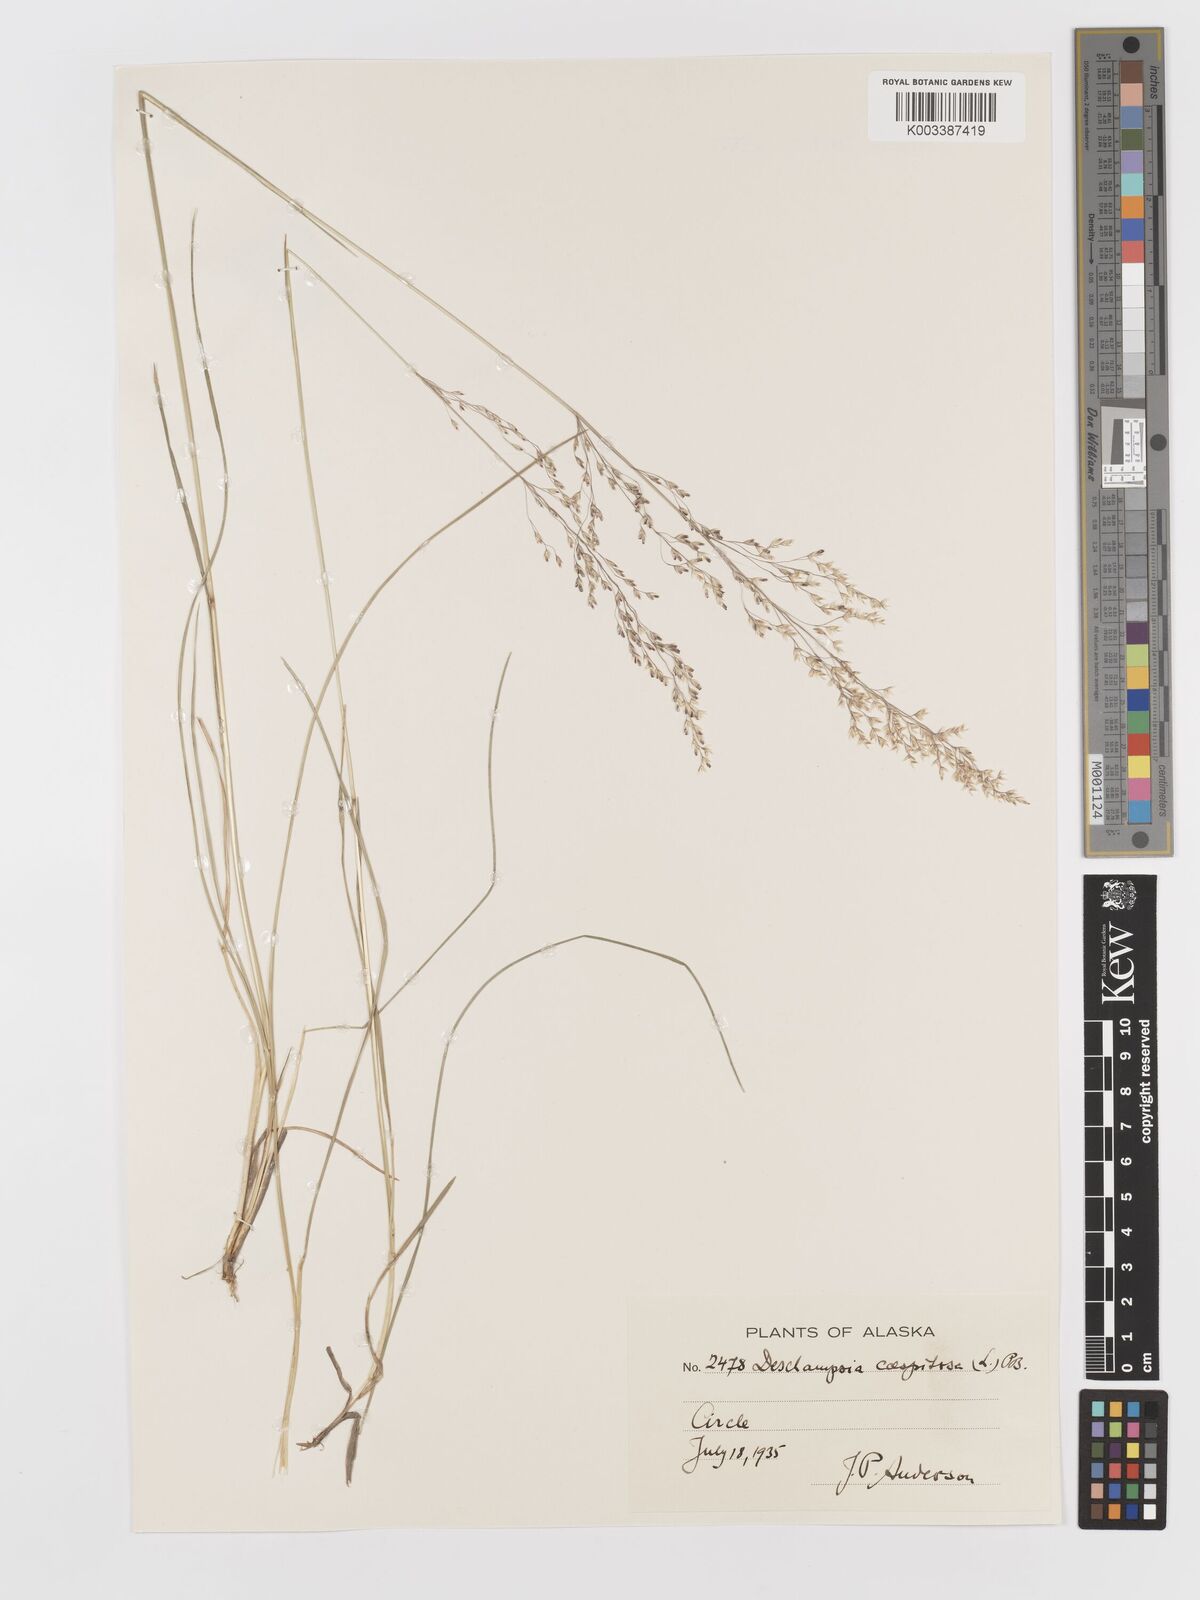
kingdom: Plantae
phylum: Tracheophyta
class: Liliopsida
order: Poales
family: Poaceae
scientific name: Poaceae
